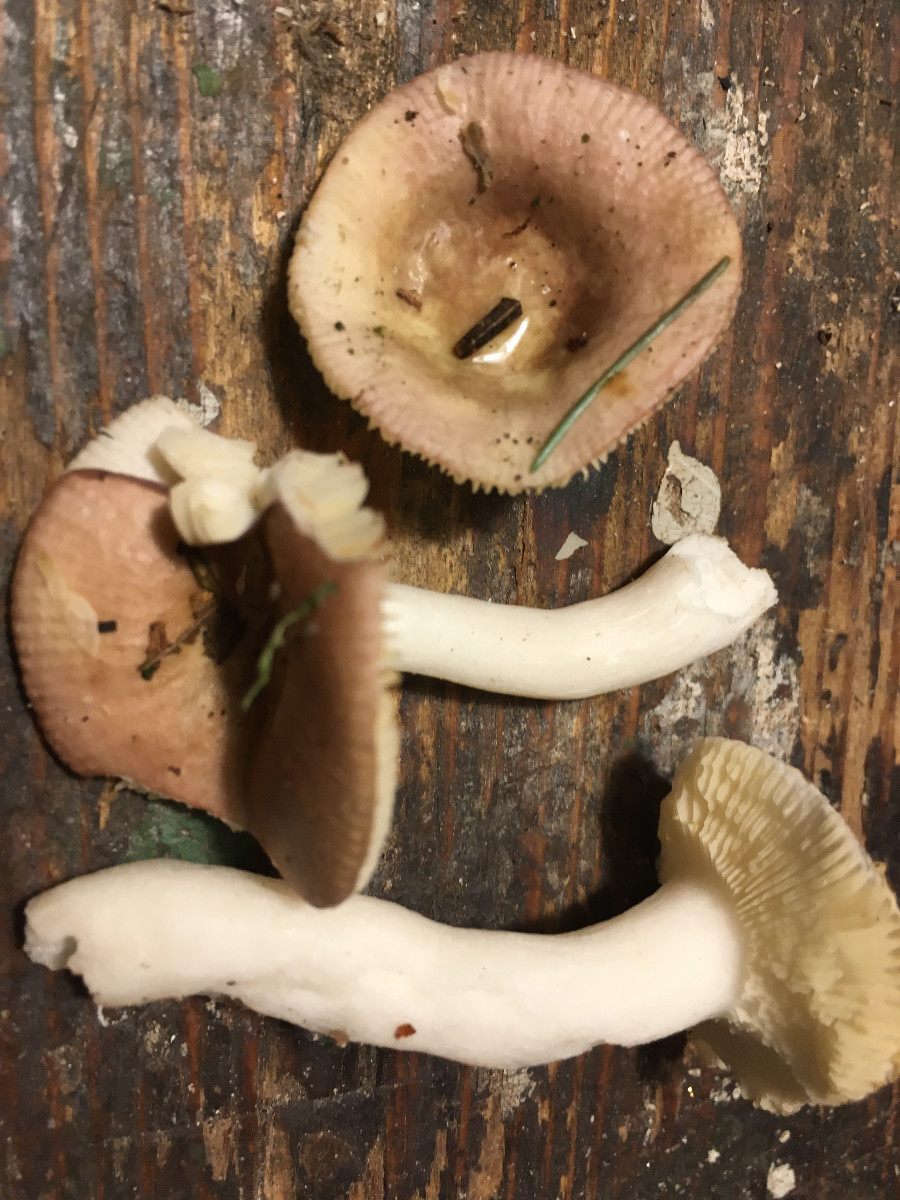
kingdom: Fungi
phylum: Basidiomycota
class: Agaricomycetes
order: Russulales
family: Russulaceae
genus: Russula
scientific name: Russula nauseosa
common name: spinkel skørhat
